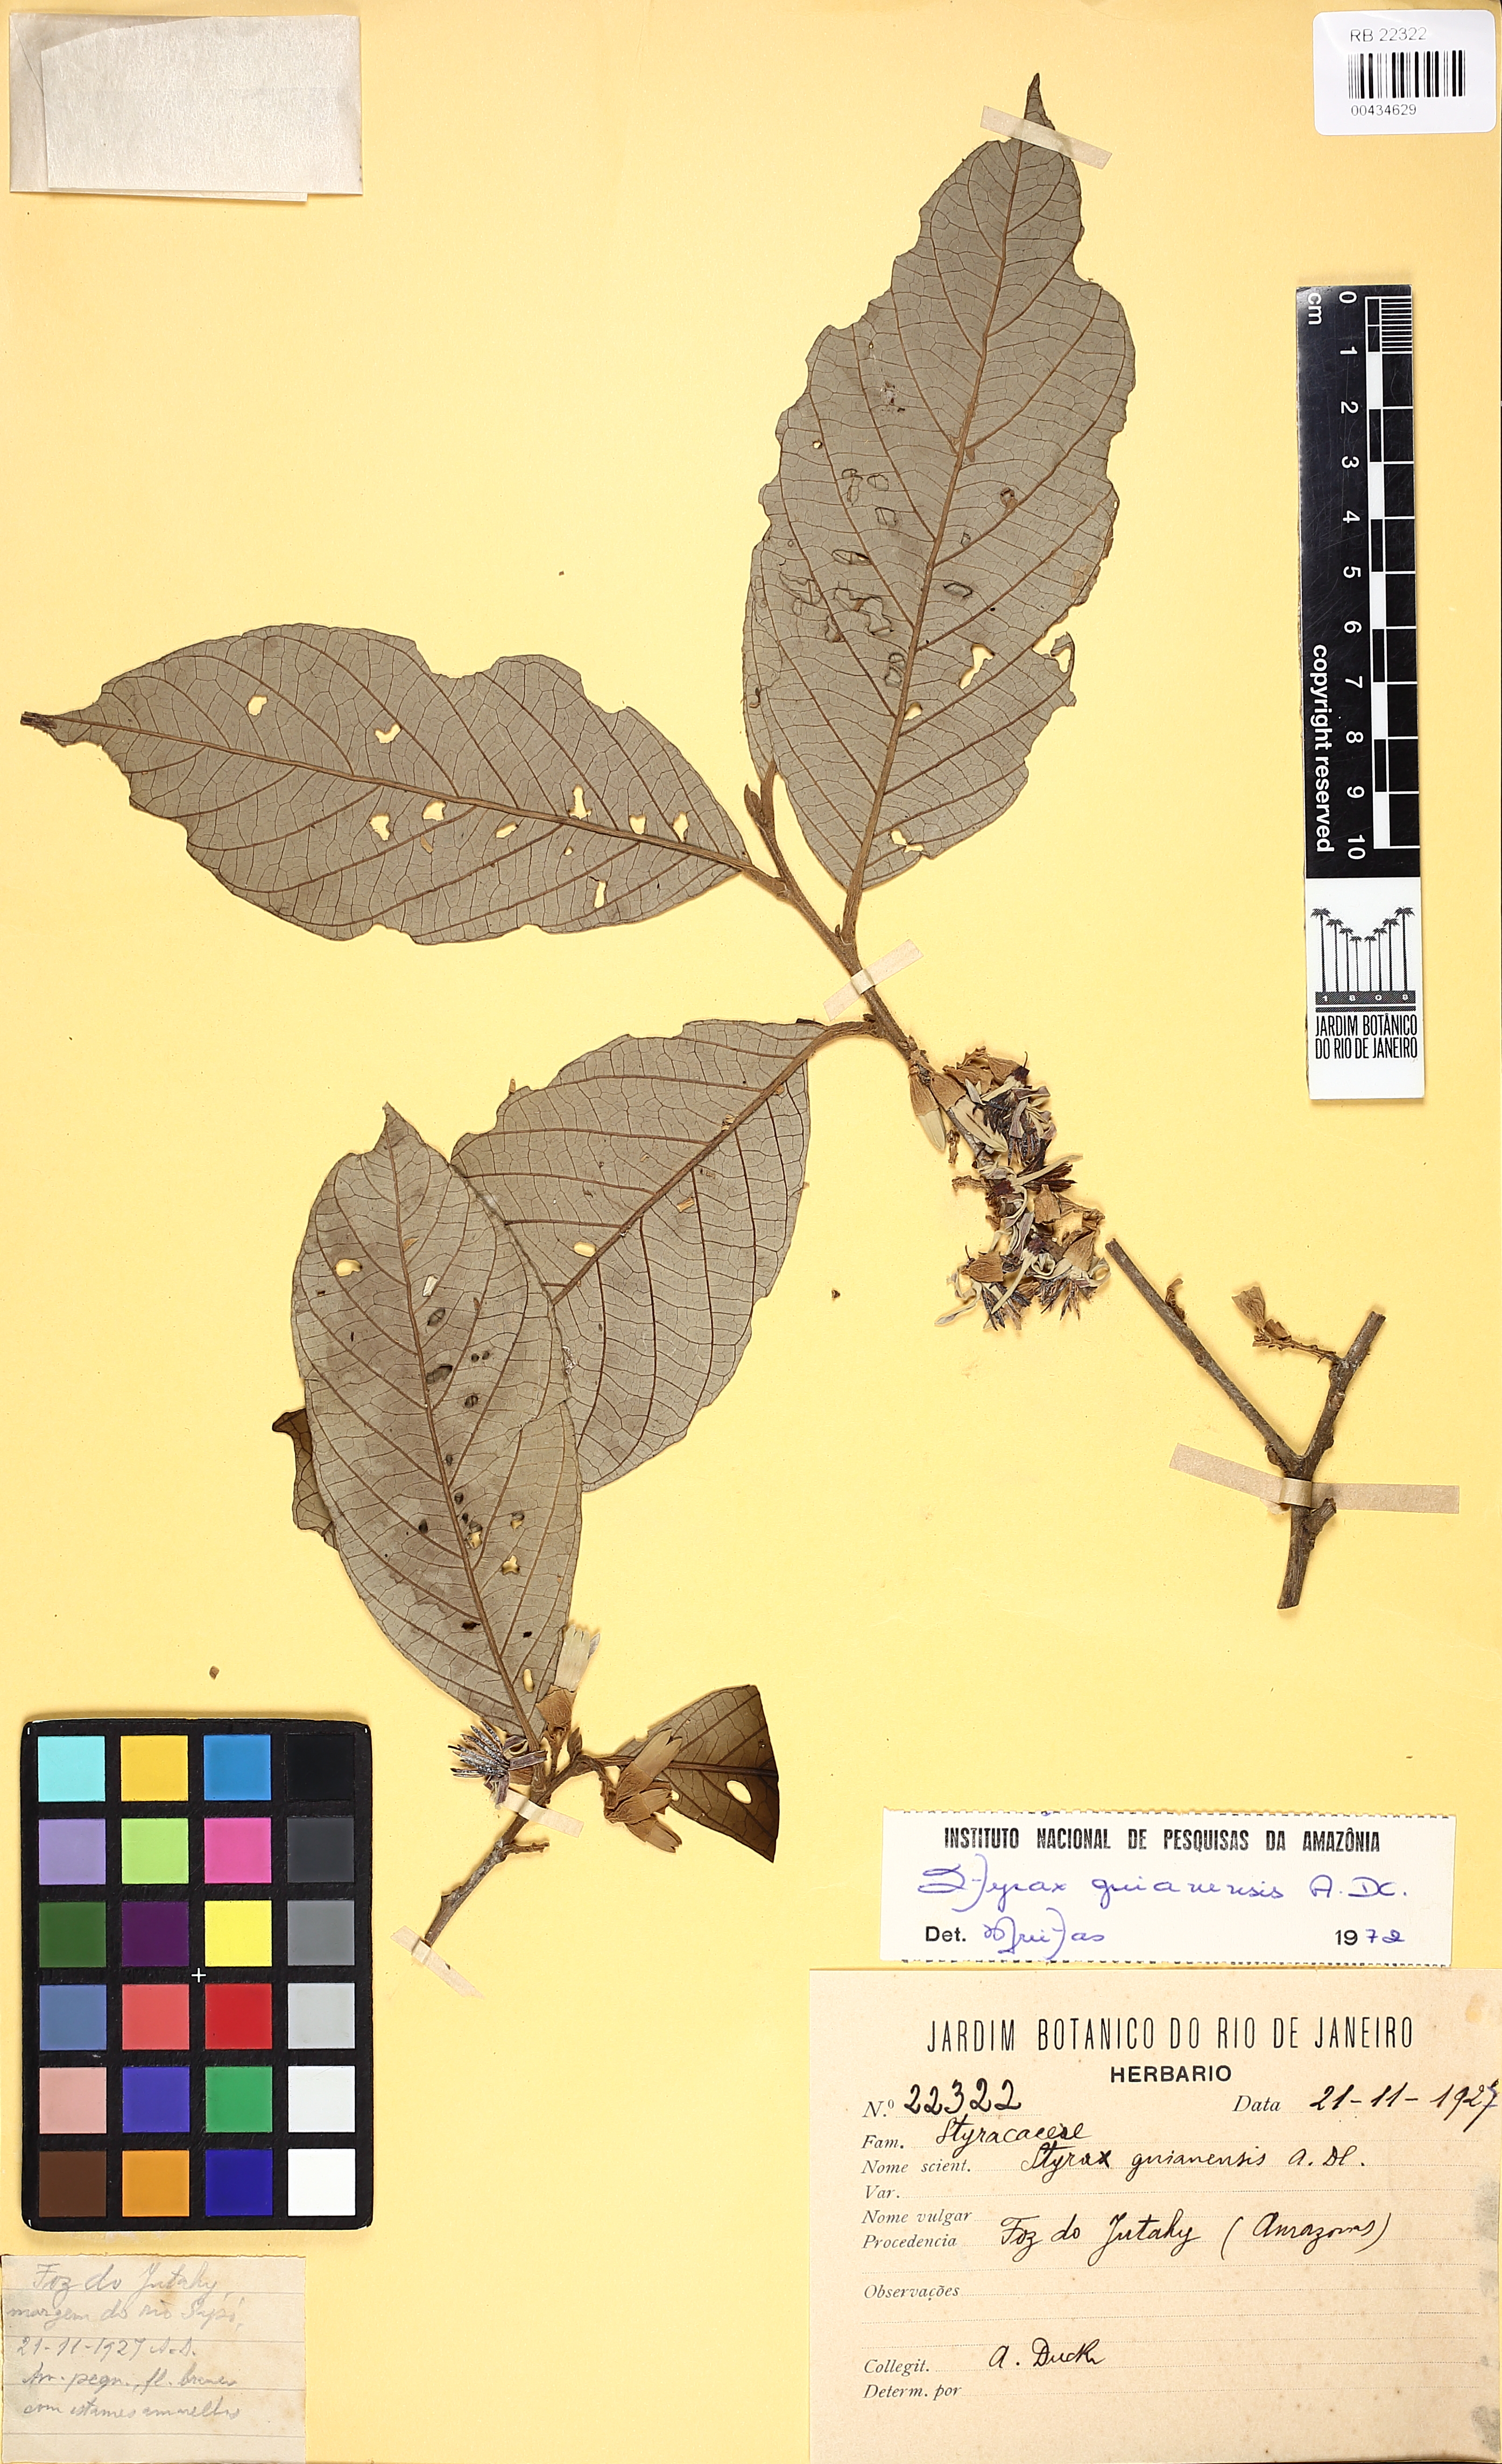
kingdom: Plantae
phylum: Tracheophyta
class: Magnoliopsida
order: Ericales
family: Styracaceae
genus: Styrax
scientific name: Styrax guyanensis
